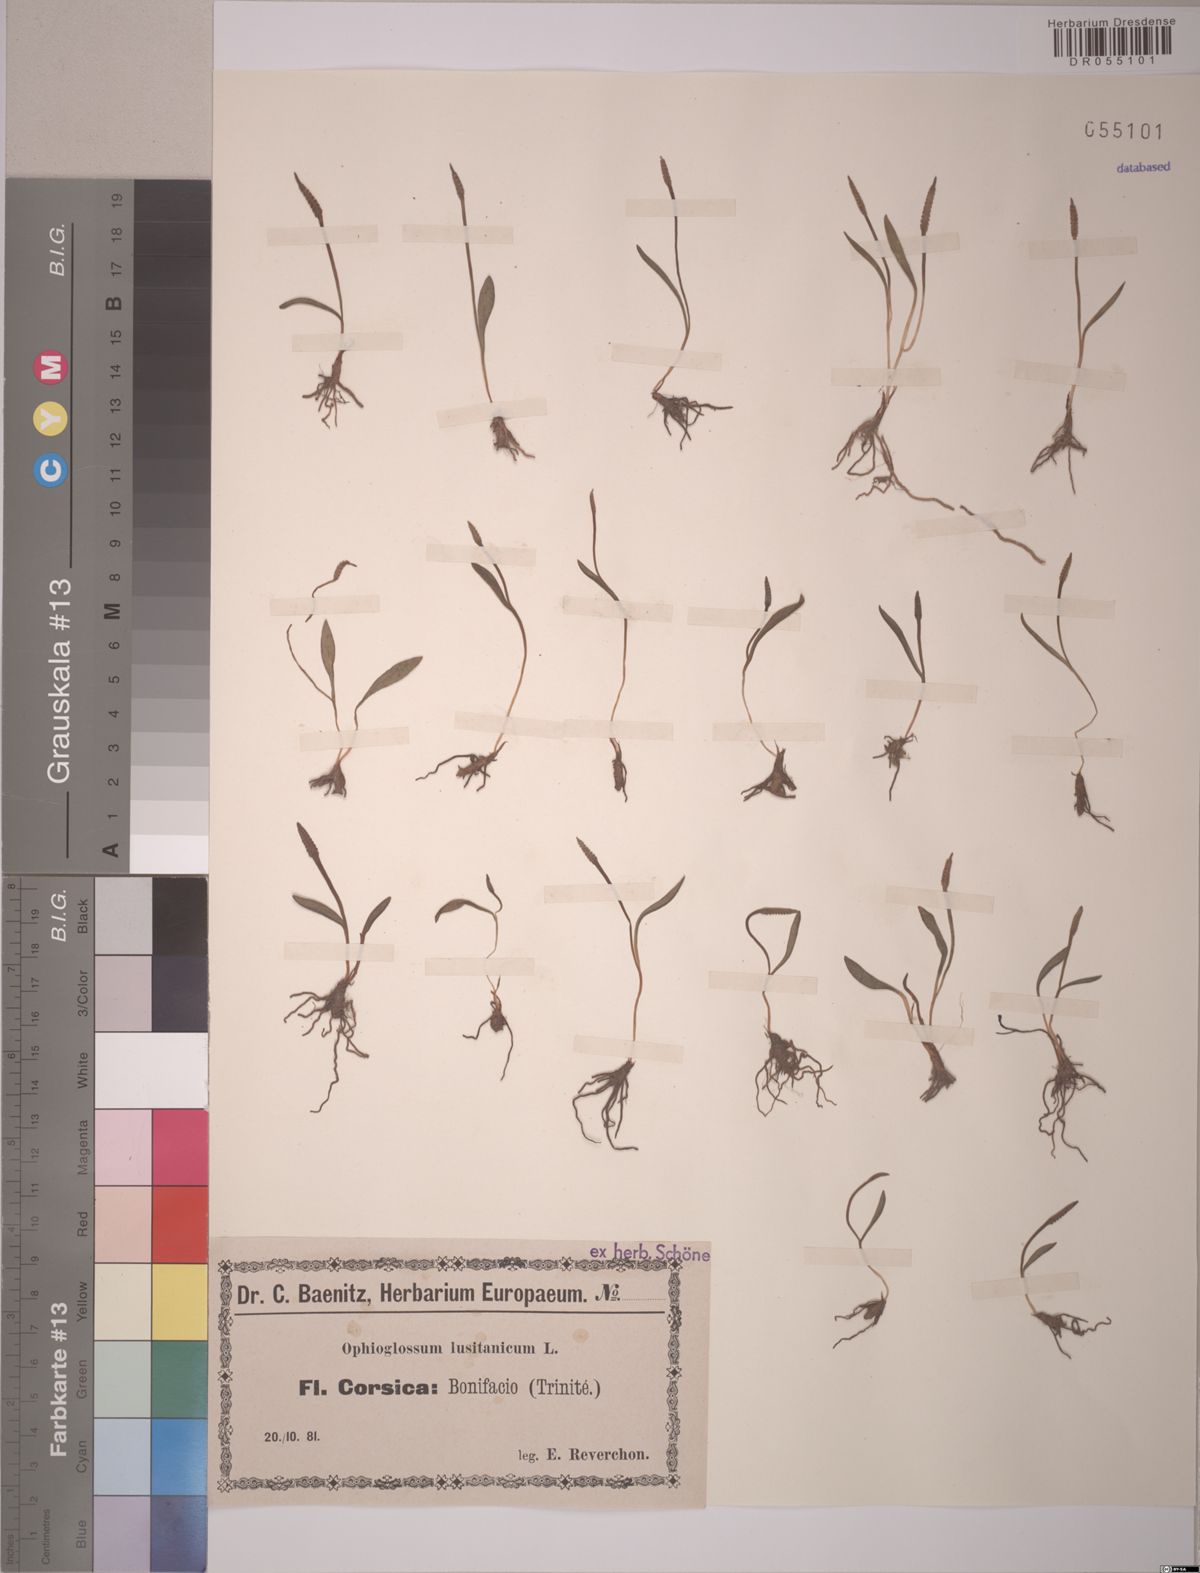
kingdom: Plantae
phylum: Tracheophyta
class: Polypodiopsida
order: Ophioglossales
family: Ophioglossaceae
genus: Ophioglossum
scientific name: Ophioglossum lusitanicum
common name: Least adder's-tongue
